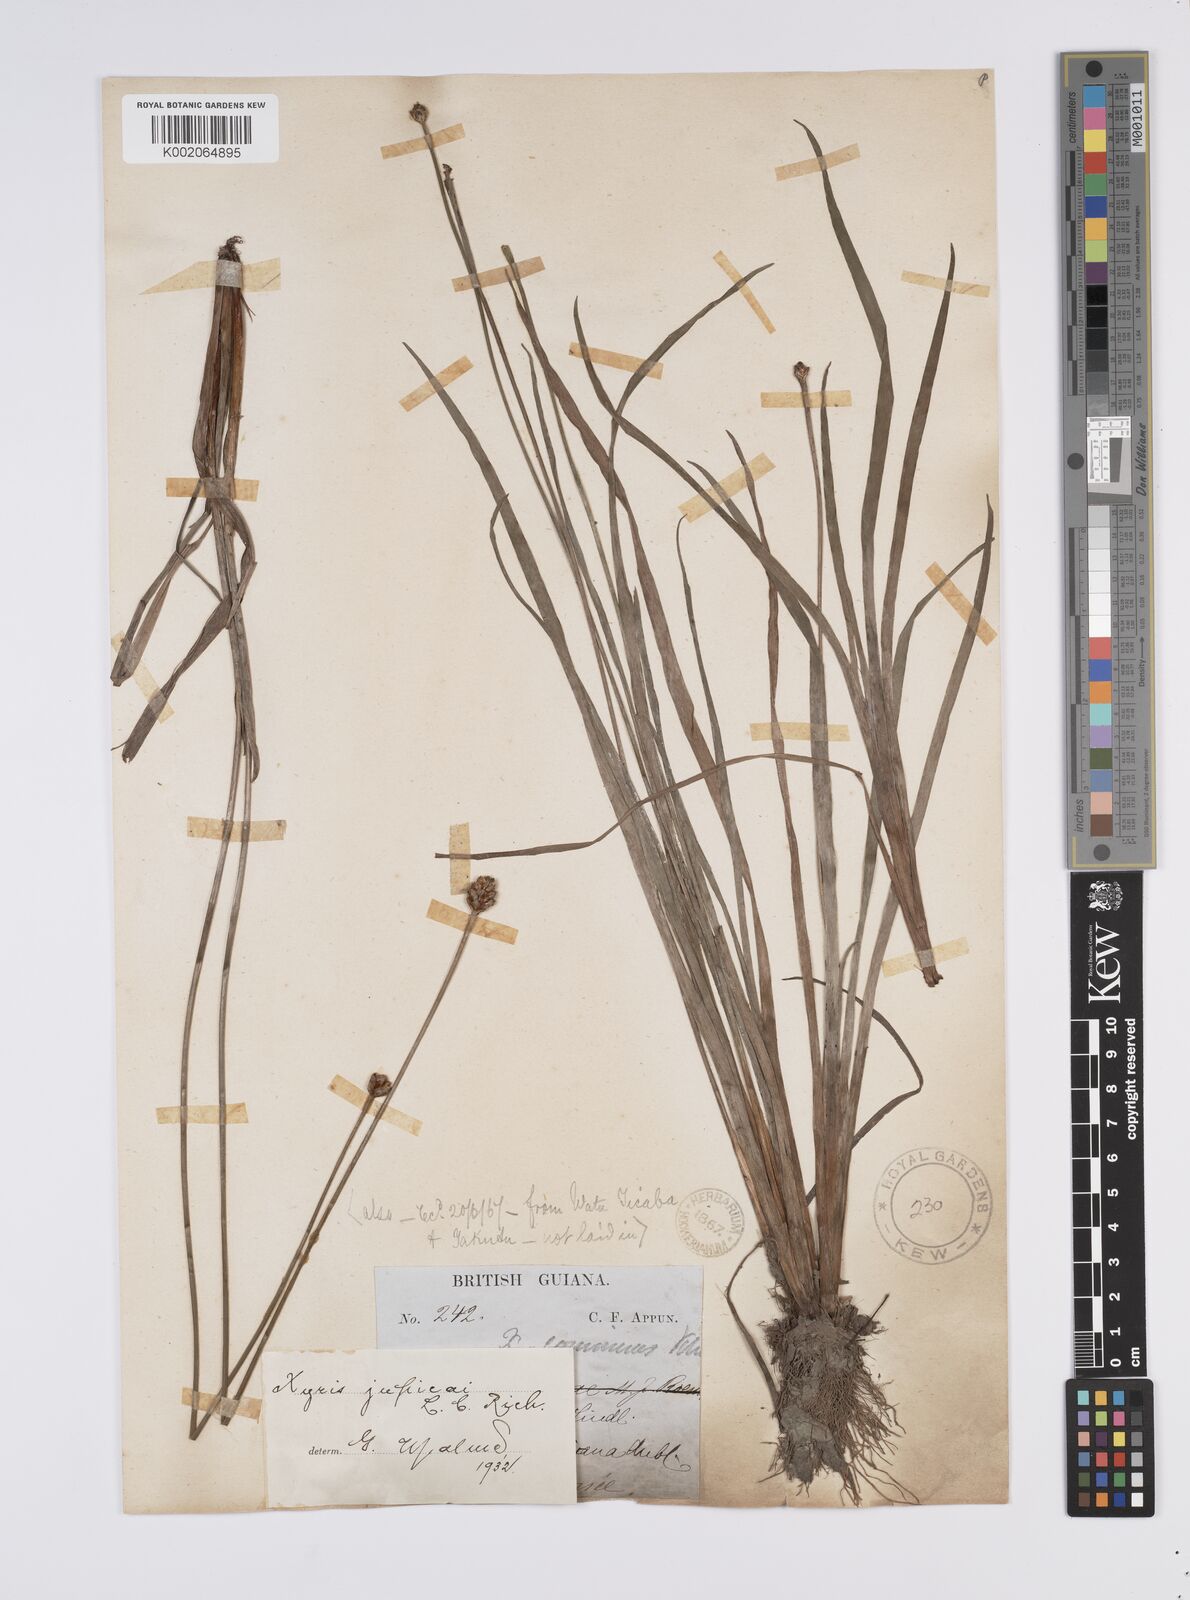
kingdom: Plantae
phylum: Tracheophyta
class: Liliopsida
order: Poales
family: Xyridaceae
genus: Xyris
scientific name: Xyris jupicai
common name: Richard's yelloweyed grass
